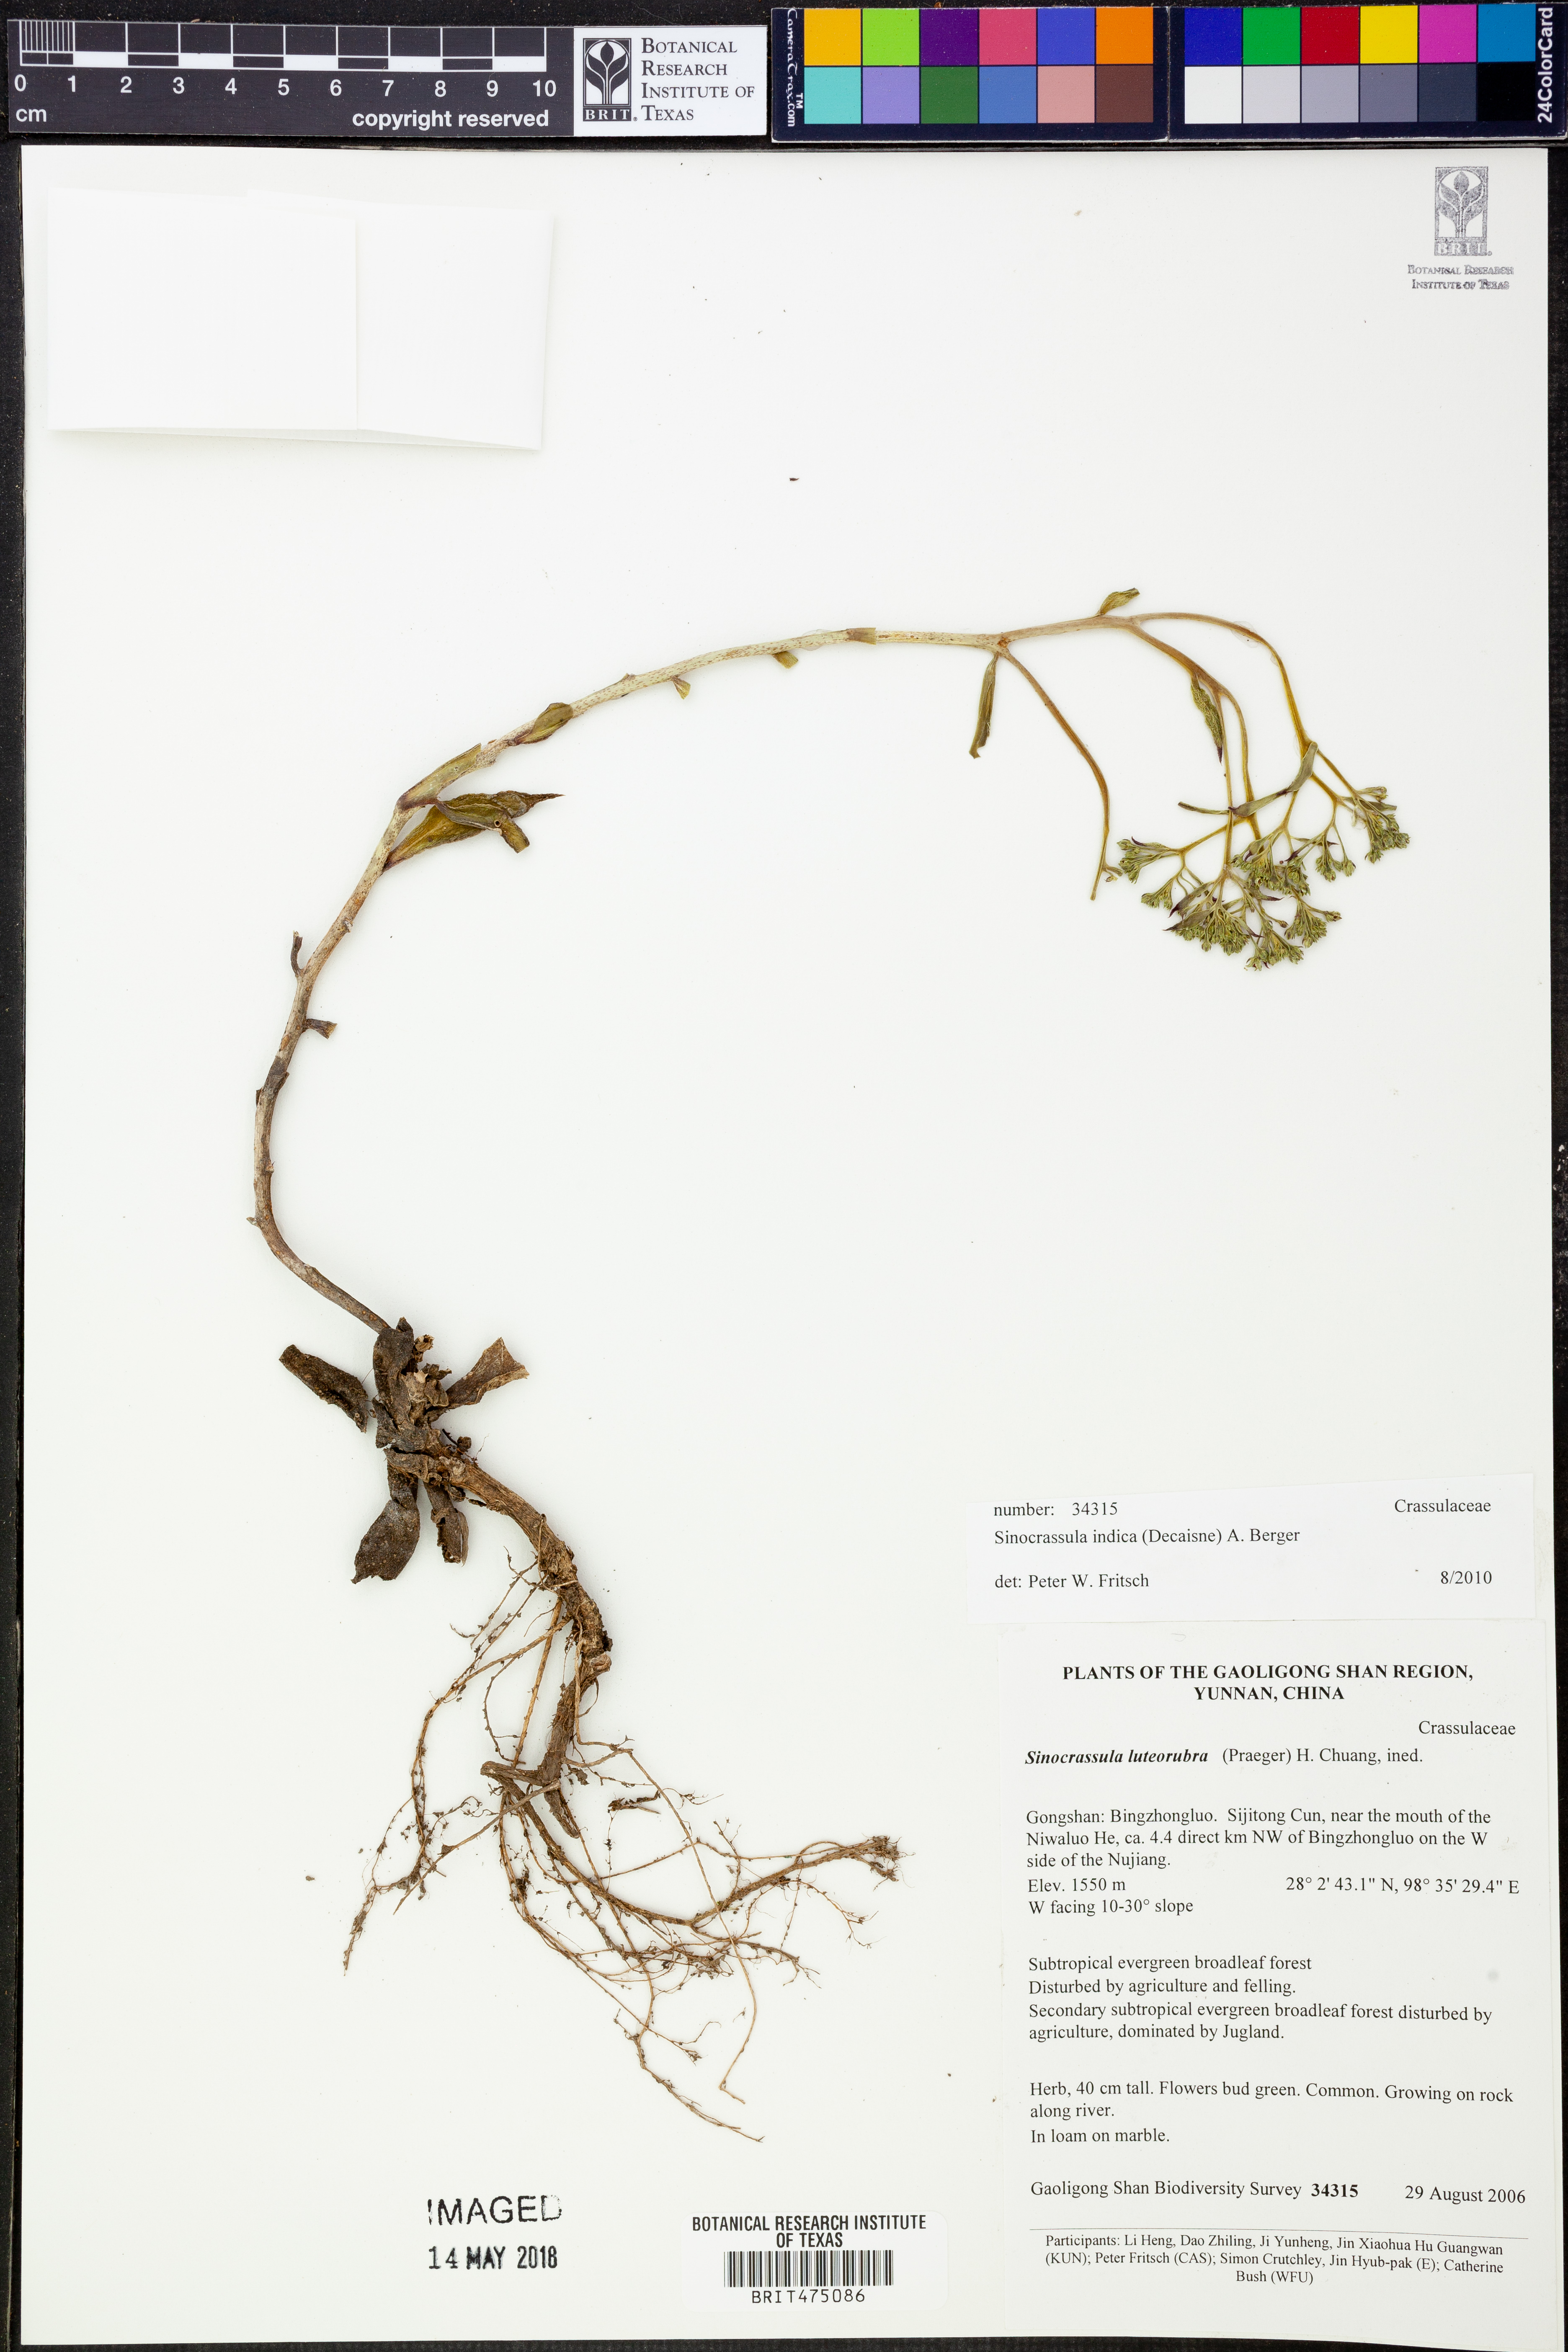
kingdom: Plantae
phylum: Tracheophyta
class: Magnoliopsida
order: Saxifragales
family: Crassulaceae
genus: Sinocrassula
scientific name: Sinocrassula indica
